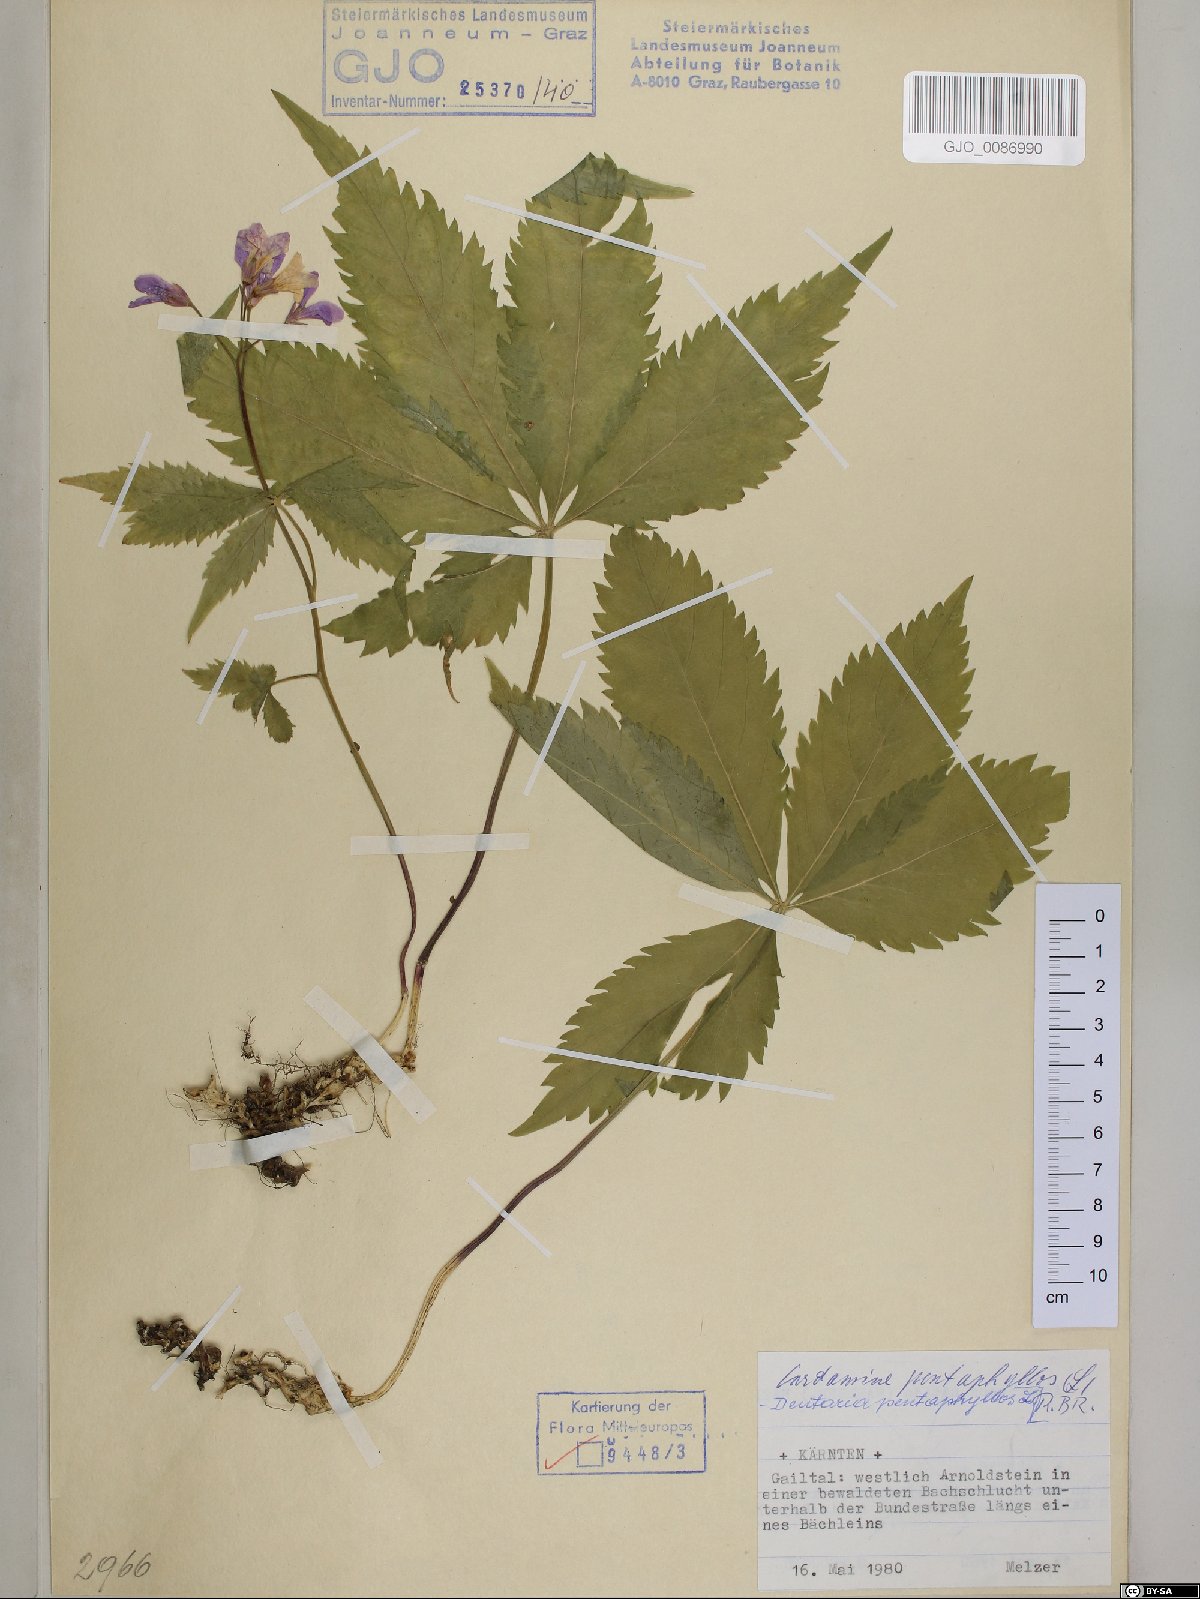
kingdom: Plantae
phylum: Tracheophyta
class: Magnoliopsida
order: Brassicales
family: Brassicaceae
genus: Cardamine
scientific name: Cardamine pentaphyllos
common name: Five-leaflet bitter-cress
